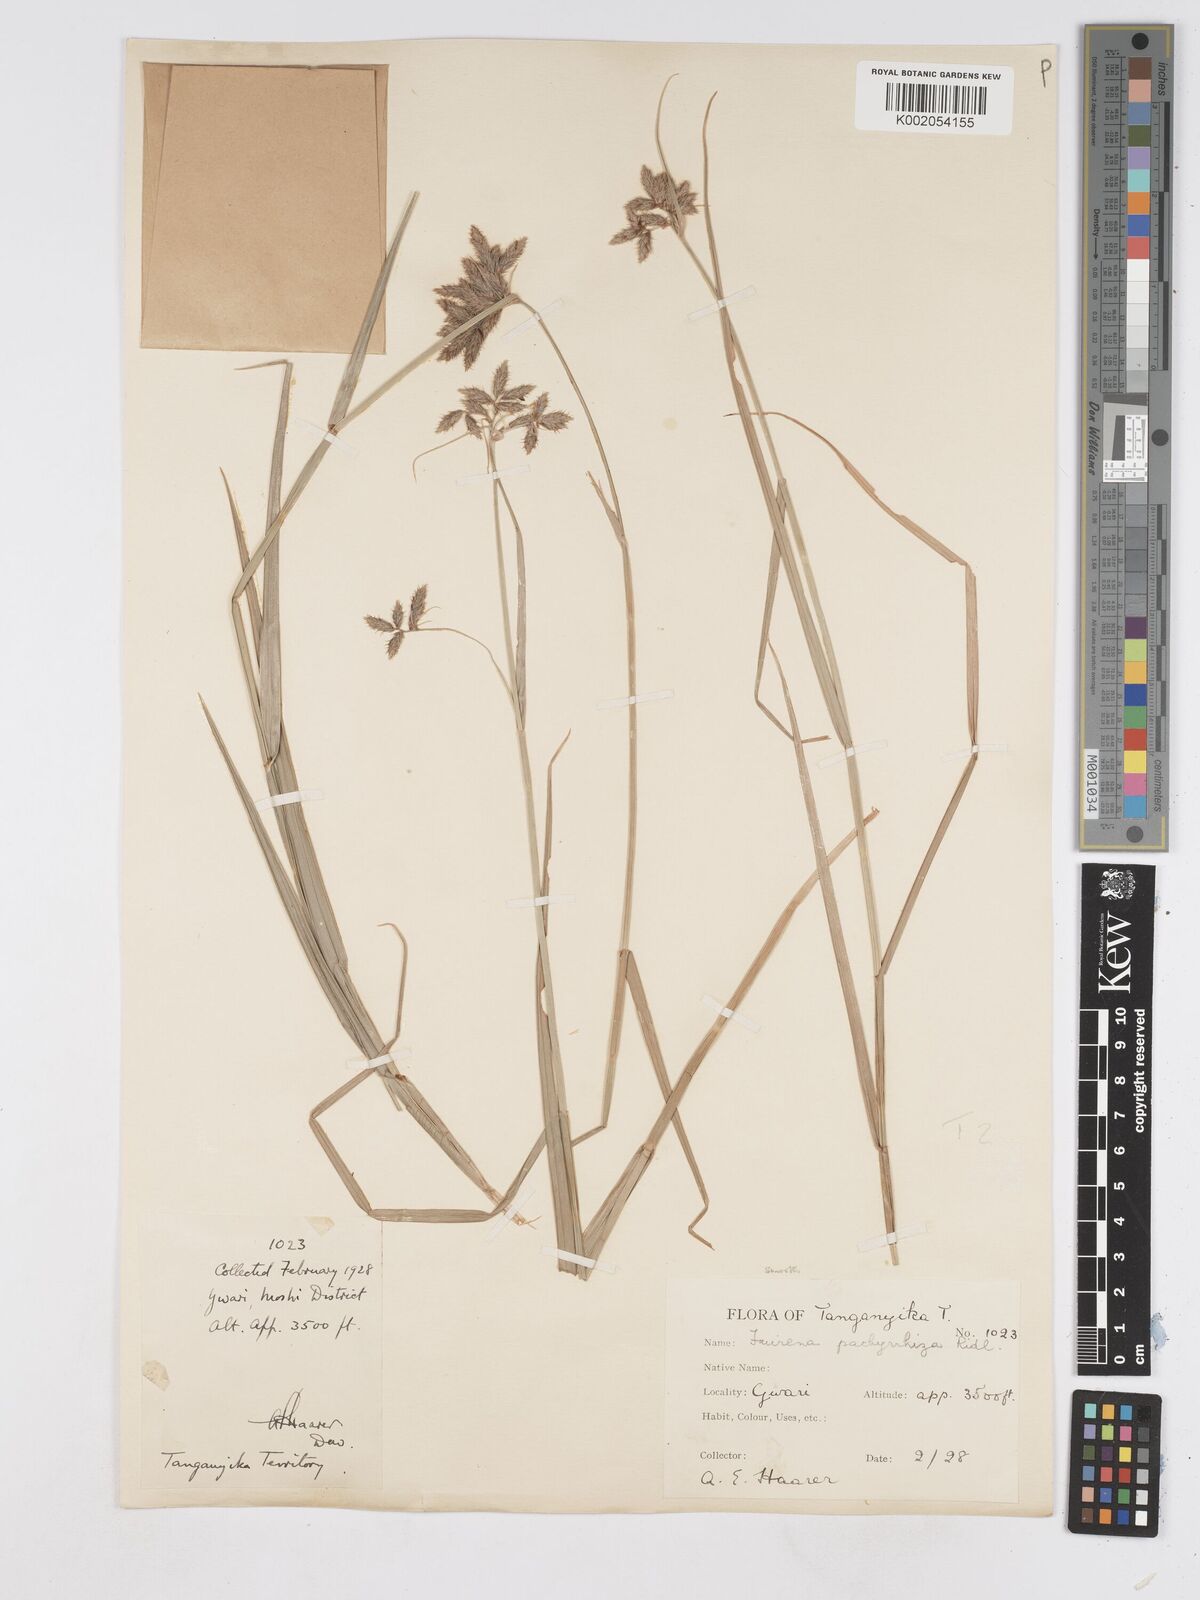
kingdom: Plantae
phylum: Tracheophyta
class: Liliopsida
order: Poales
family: Cyperaceae
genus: Fuirena
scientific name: Fuirena pachyrrhiza
